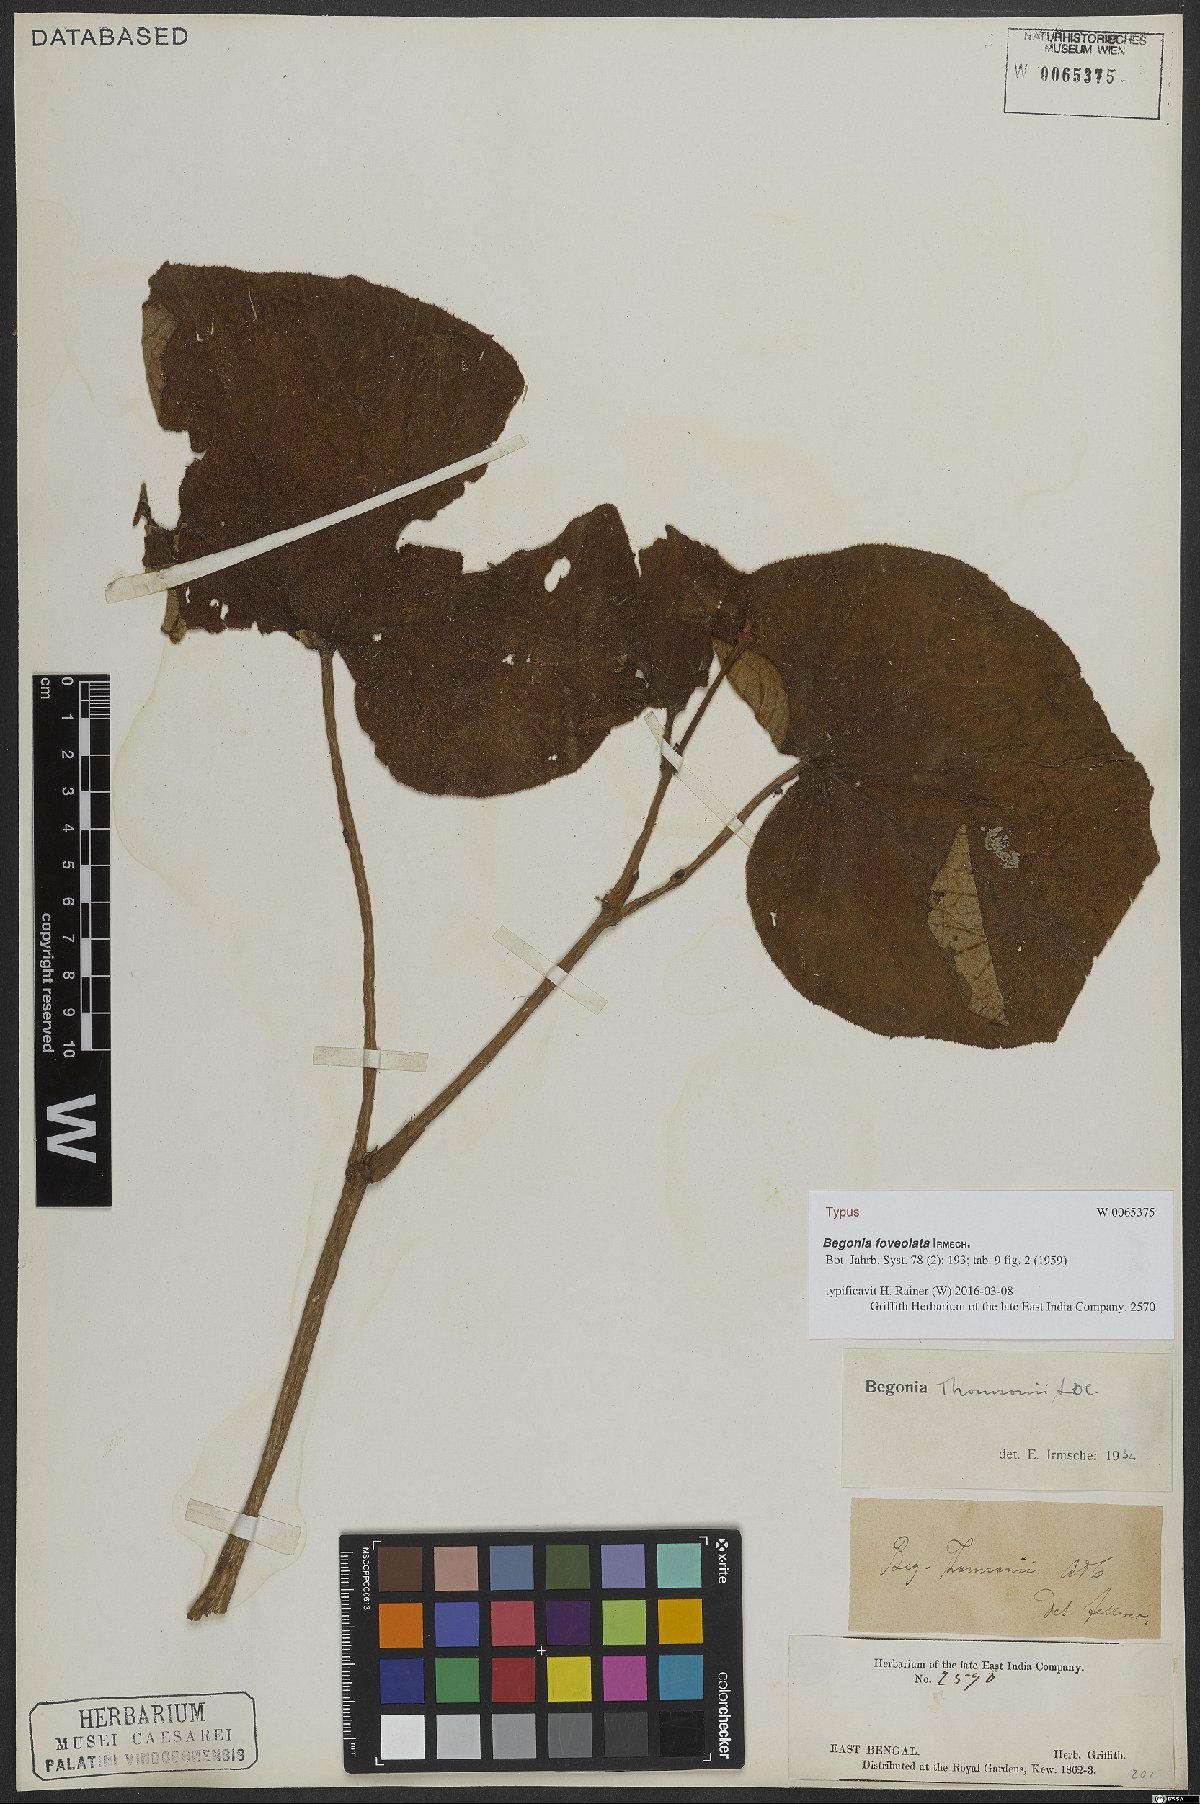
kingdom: Plantae
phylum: Tracheophyta
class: Magnoliopsida
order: Cucurbitales
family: Begoniaceae
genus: Begonia
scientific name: Begonia foveolata
